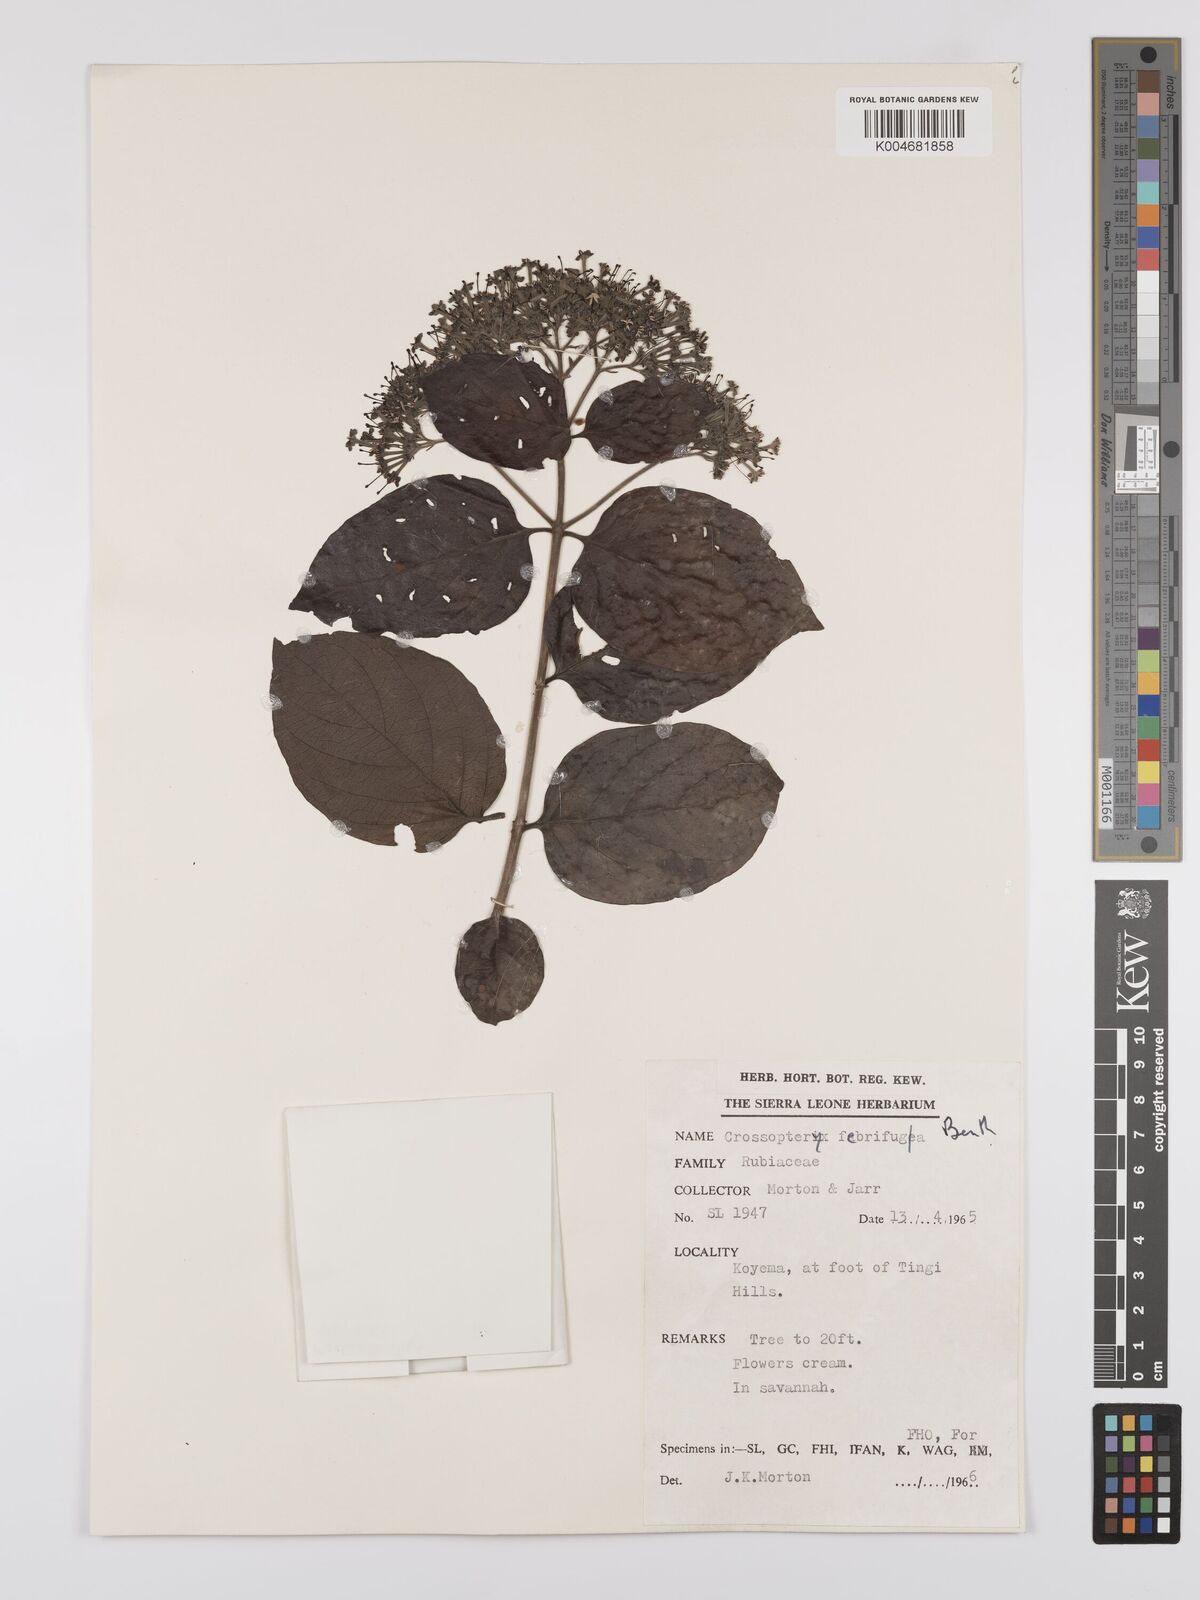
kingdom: Plantae
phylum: Tracheophyta
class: Magnoliopsida
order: Gentianales
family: Rubiaceae
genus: Crossopteryx
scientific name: Crossopteryx febrifuga
